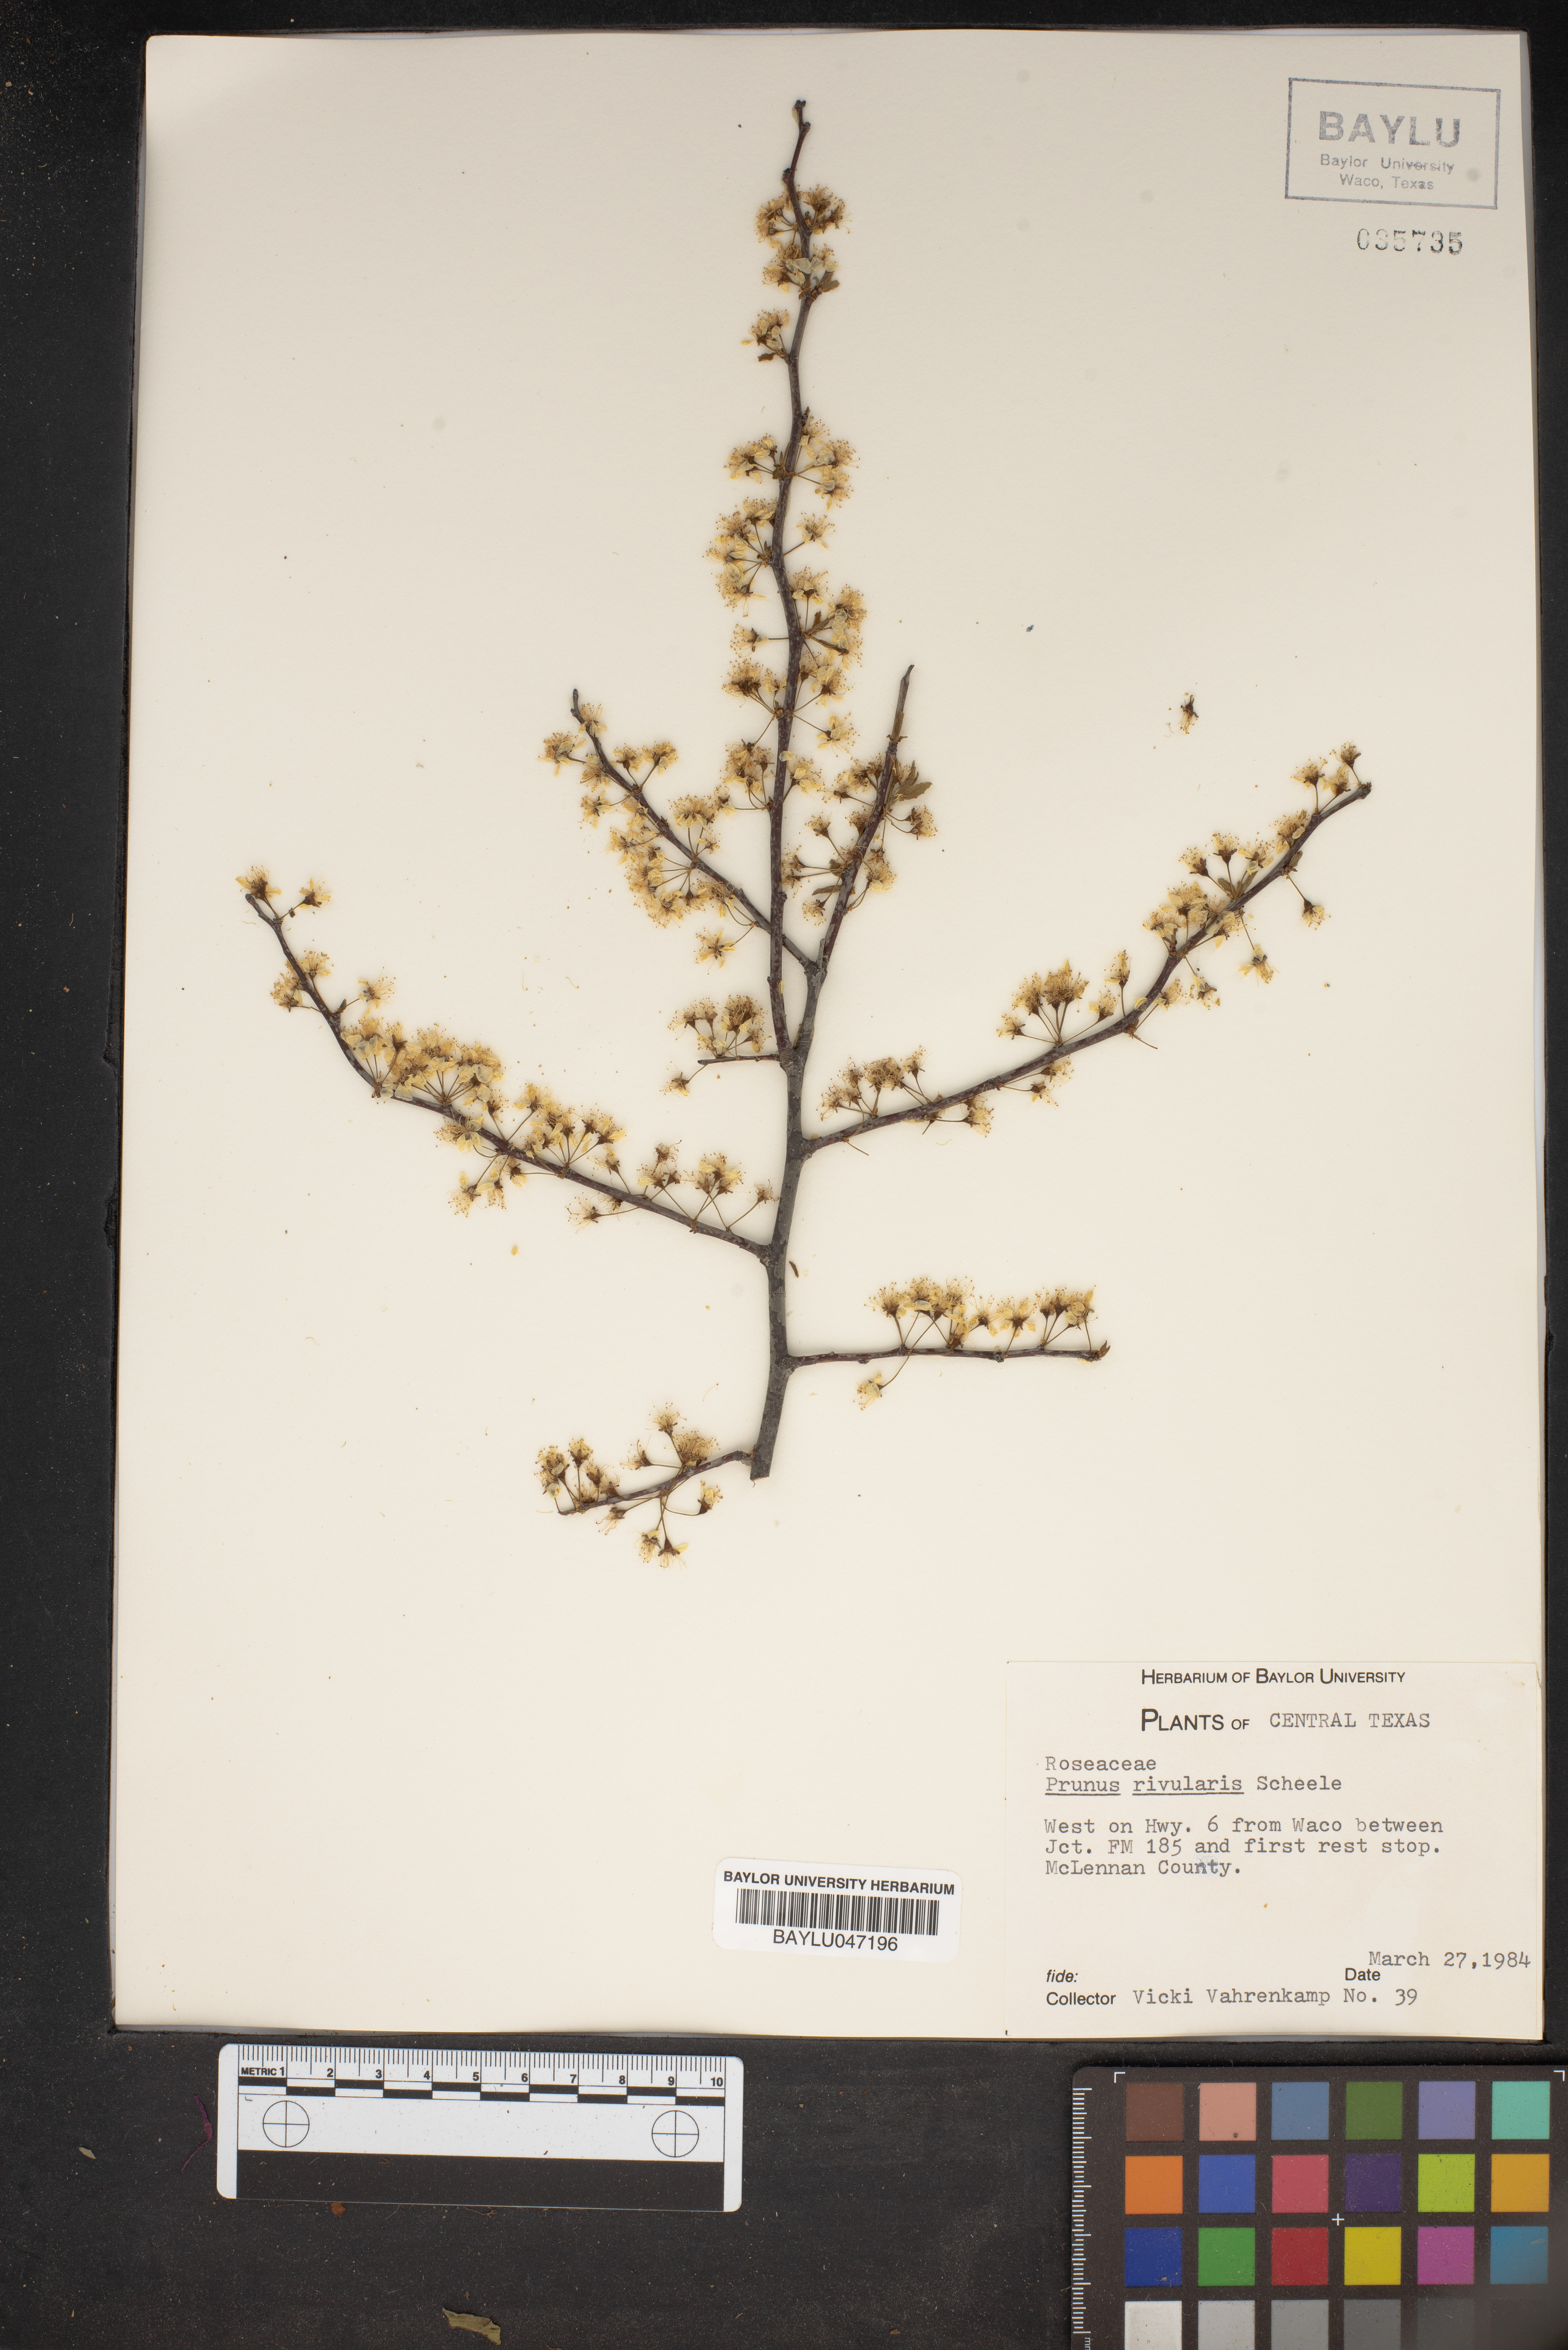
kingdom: Plantae
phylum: Tracheophyta
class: Magnoliopsida
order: Rosales
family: Rosaceae
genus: Prunus
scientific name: Prunus rivularis
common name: Creek plum
